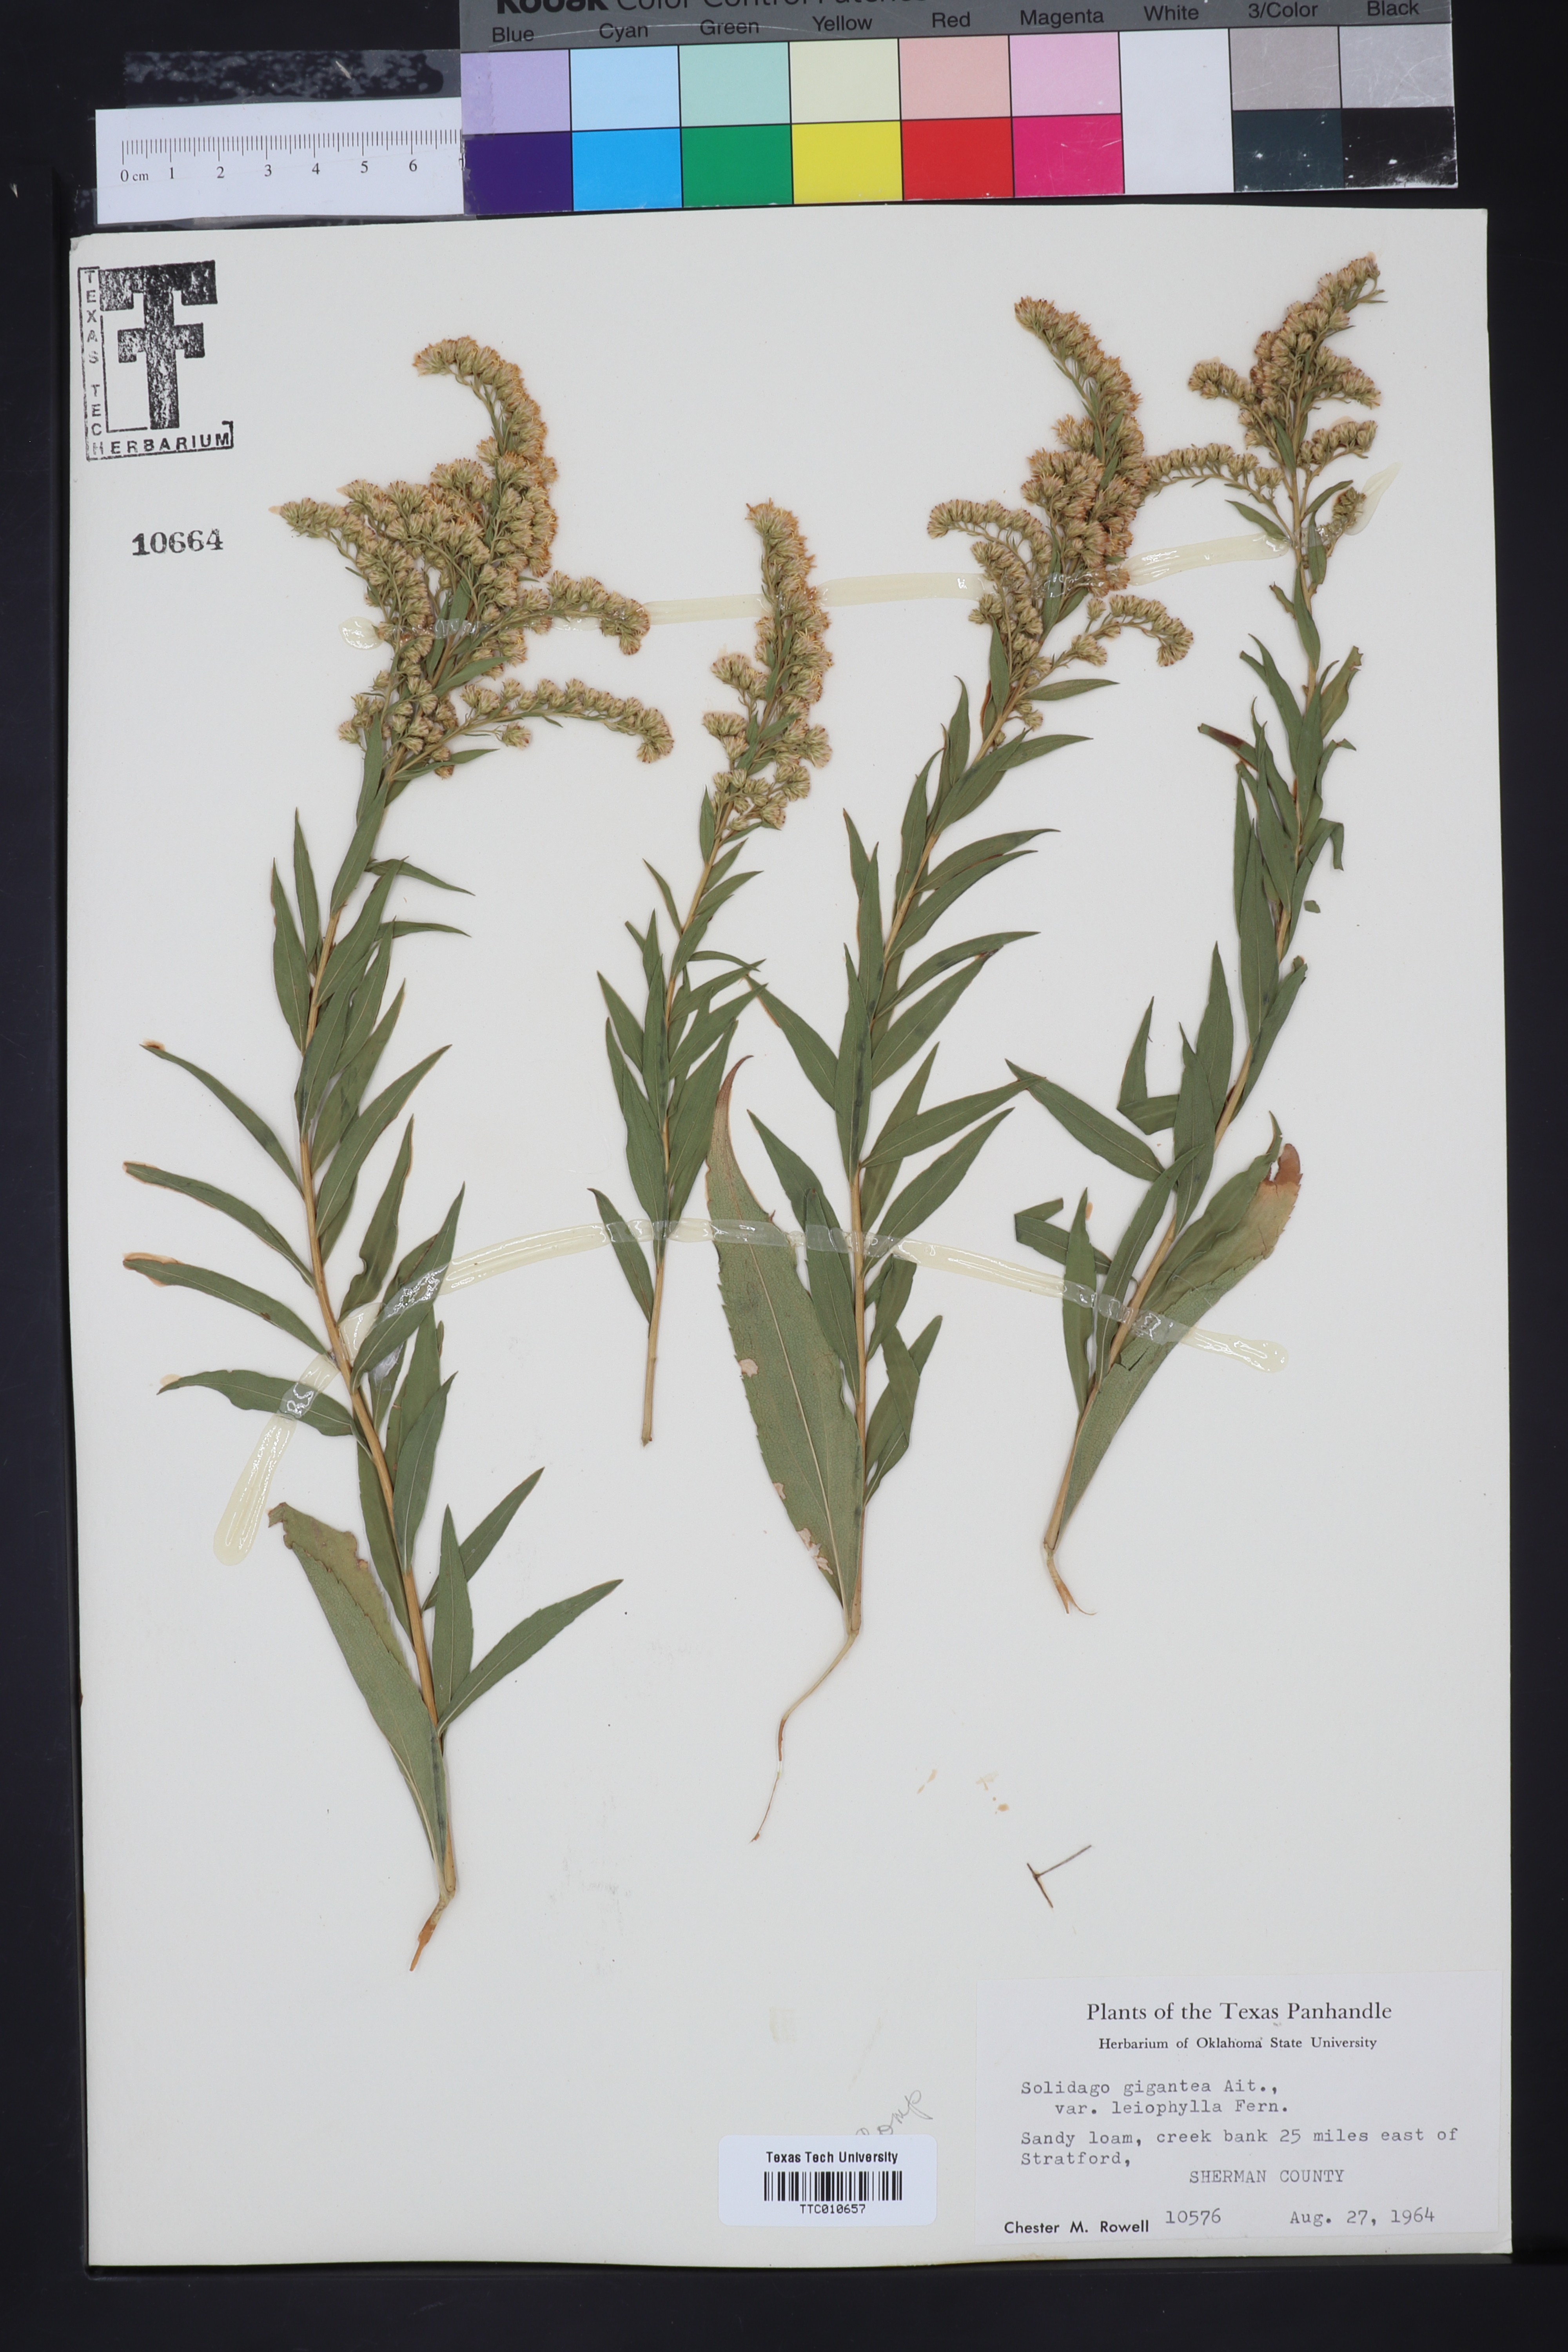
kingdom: Plantae
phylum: Tracheophyta
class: Magnoliopsida
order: Asterales
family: Asteraceae
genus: Solidago
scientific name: Solidago gigantea
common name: Giant goldenrod
